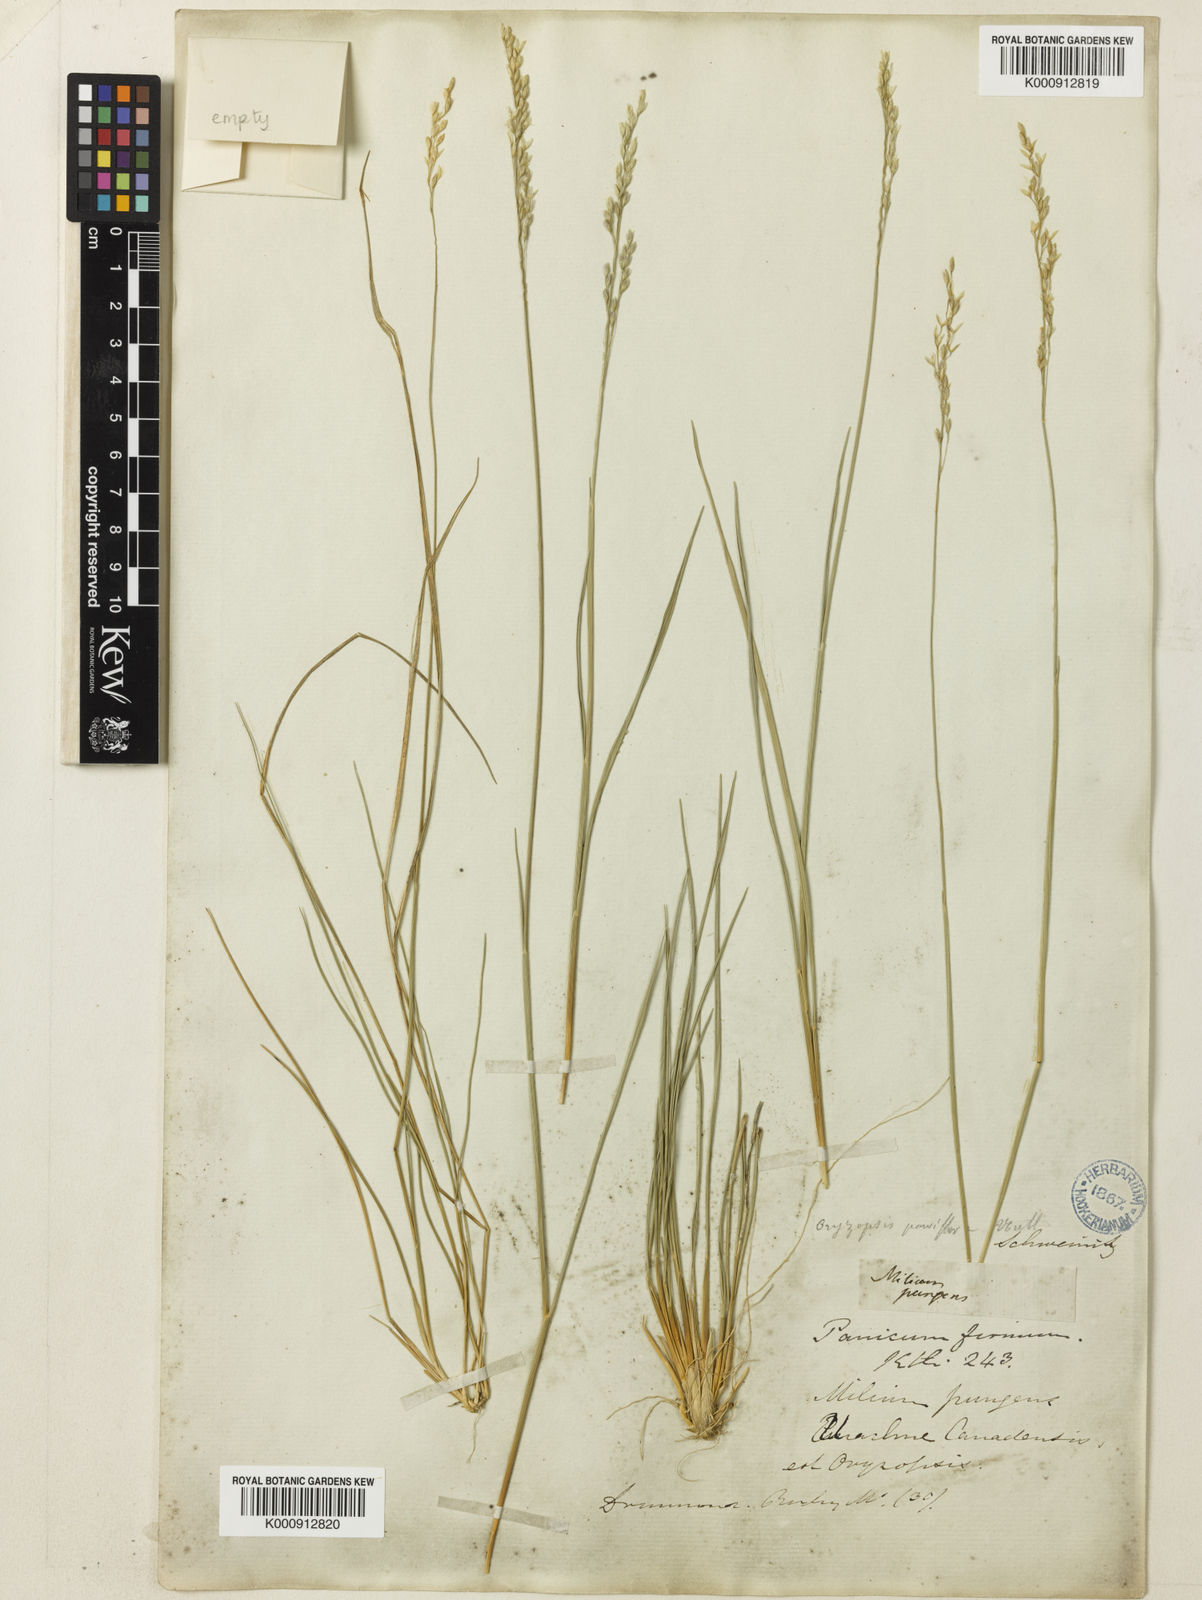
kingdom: Plantae
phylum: Tracheophyta
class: Liliopsida
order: Poales
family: Poaceae
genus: Piptatheropsis
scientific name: Piptatheropsis pungens
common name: Northern ricegrass
